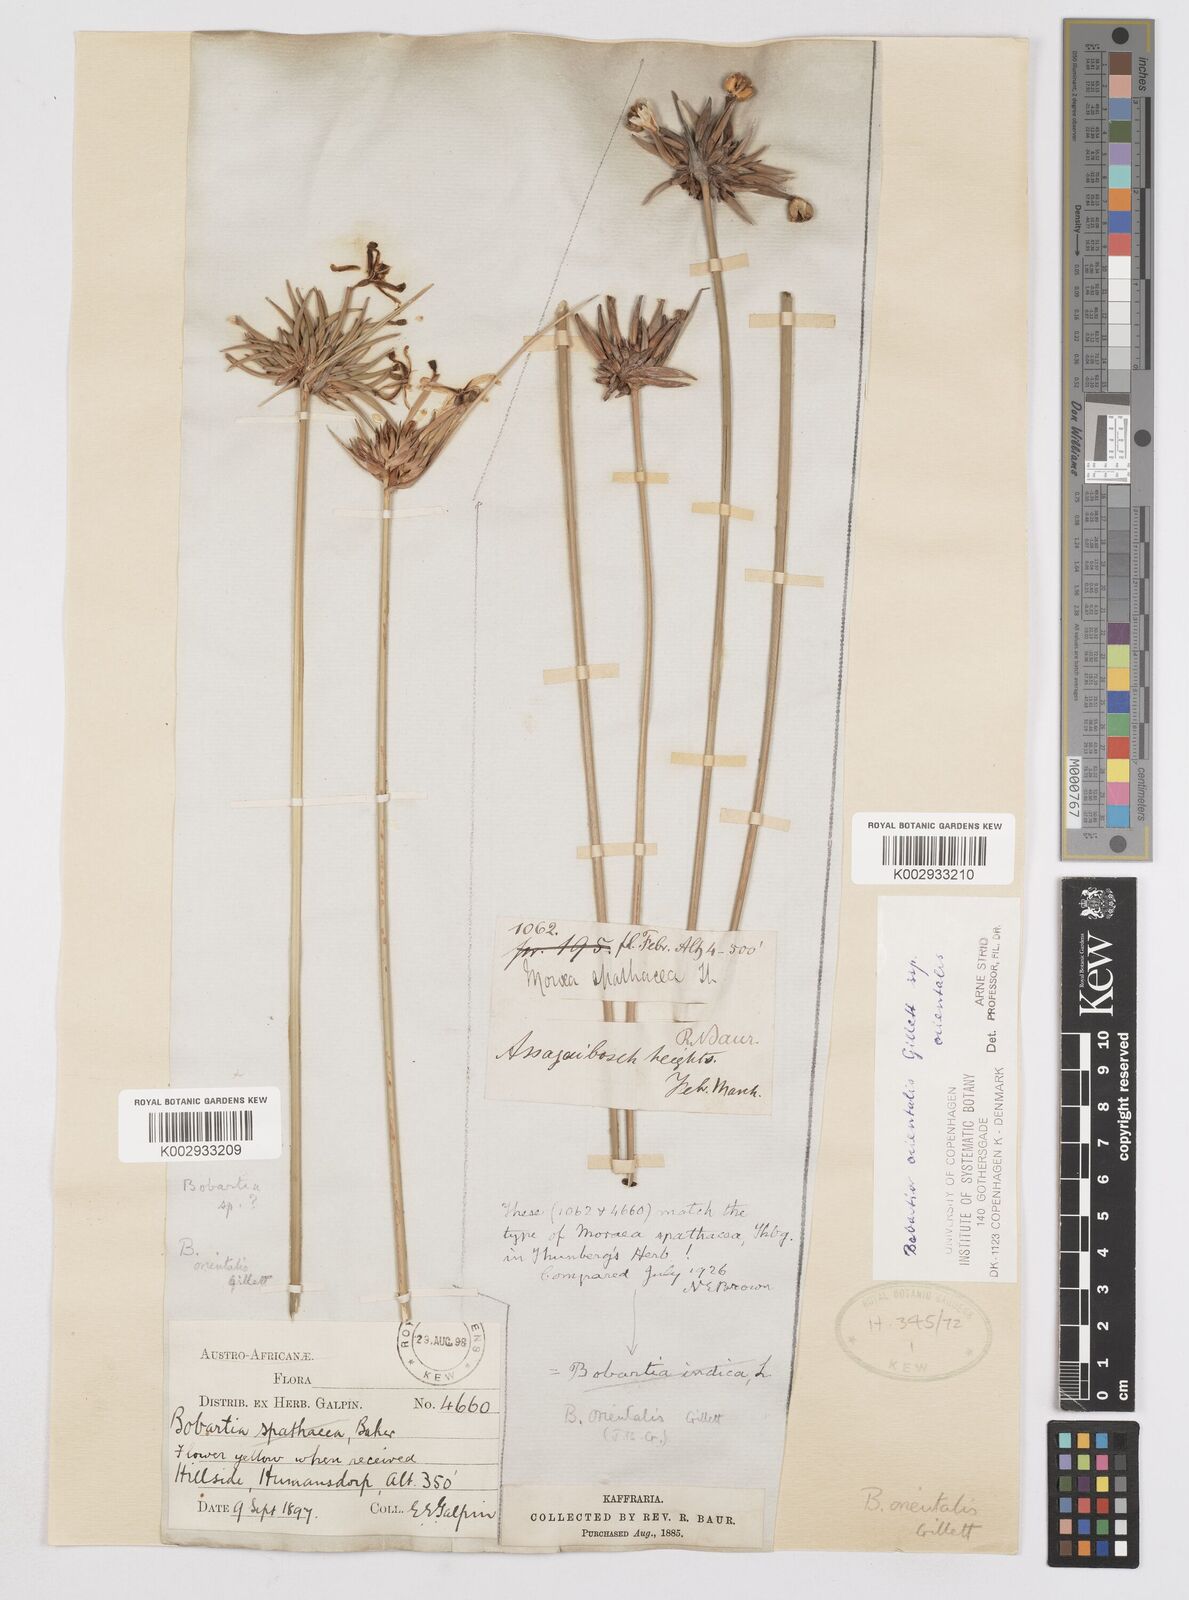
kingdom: Plantae
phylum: Tracheophyta
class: Liliopsida
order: Asparagales
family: Iridaceae
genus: Bobartia
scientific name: Bobartia orientalis
